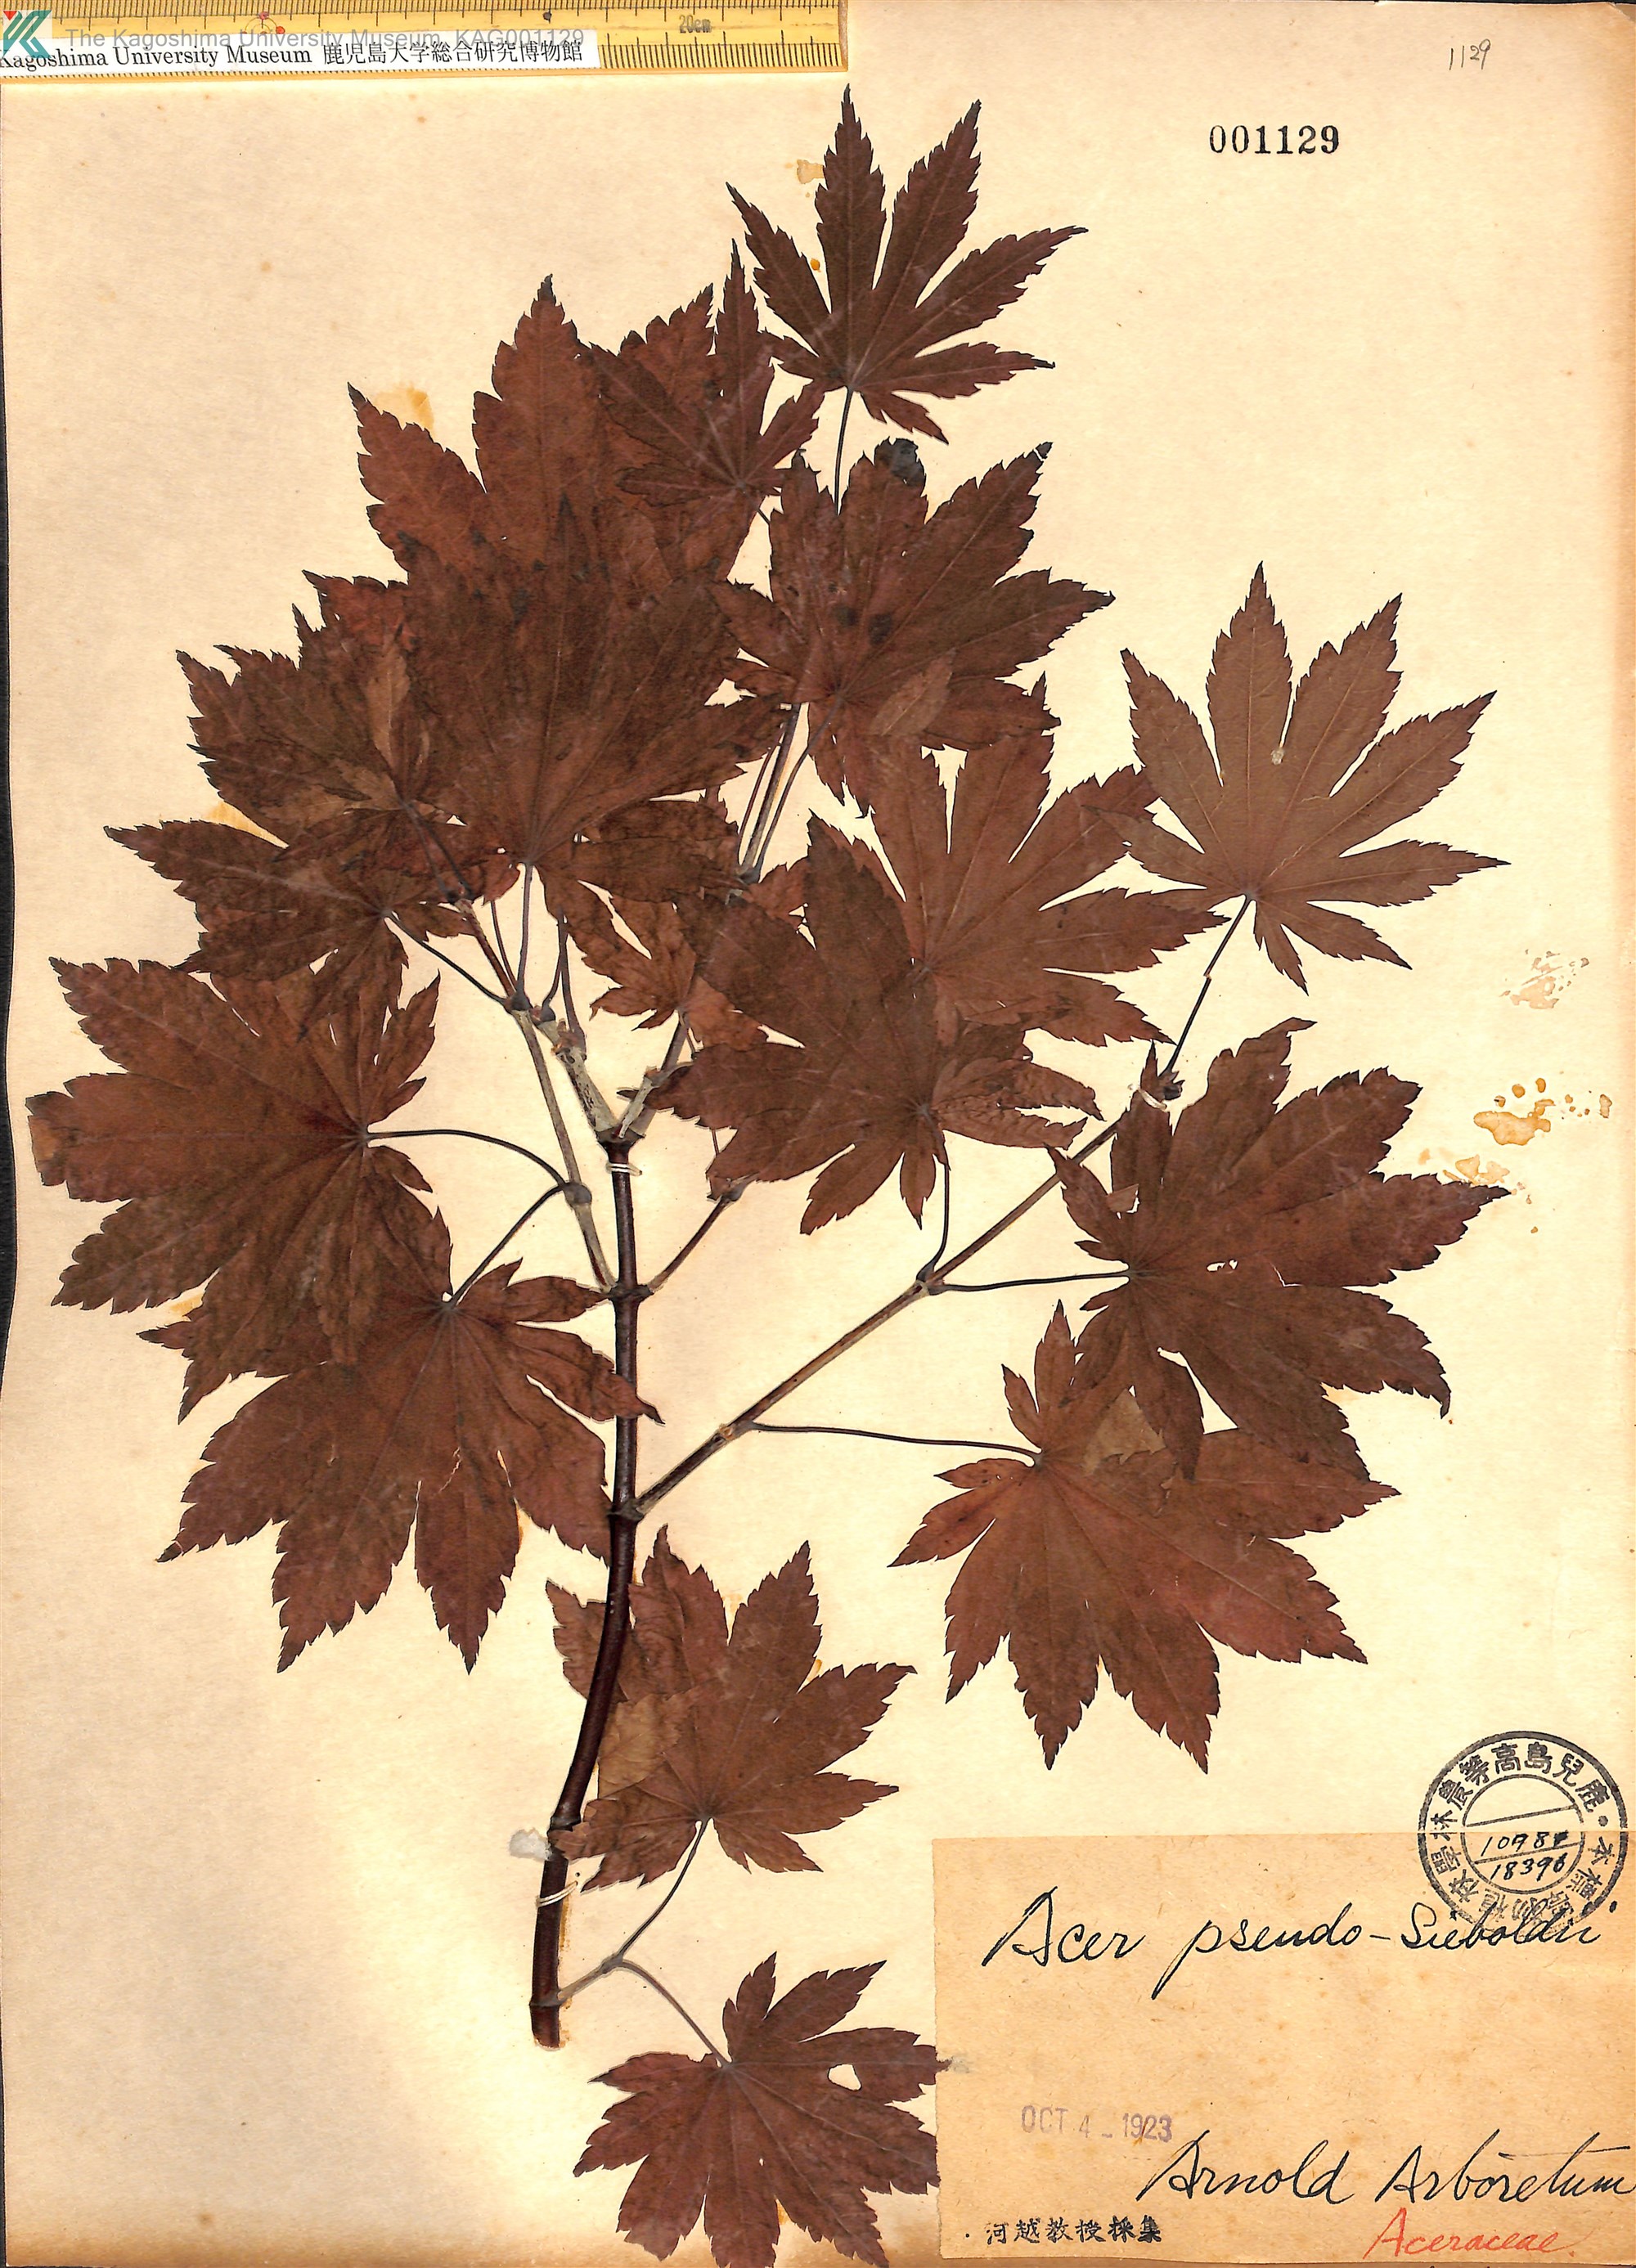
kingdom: Plantae
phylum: Tracheophyta
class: Magnoliopsida
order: Sapindales
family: Sapindaceae
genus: Acer
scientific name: Acer pseudosieboldianum
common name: Korean maple
